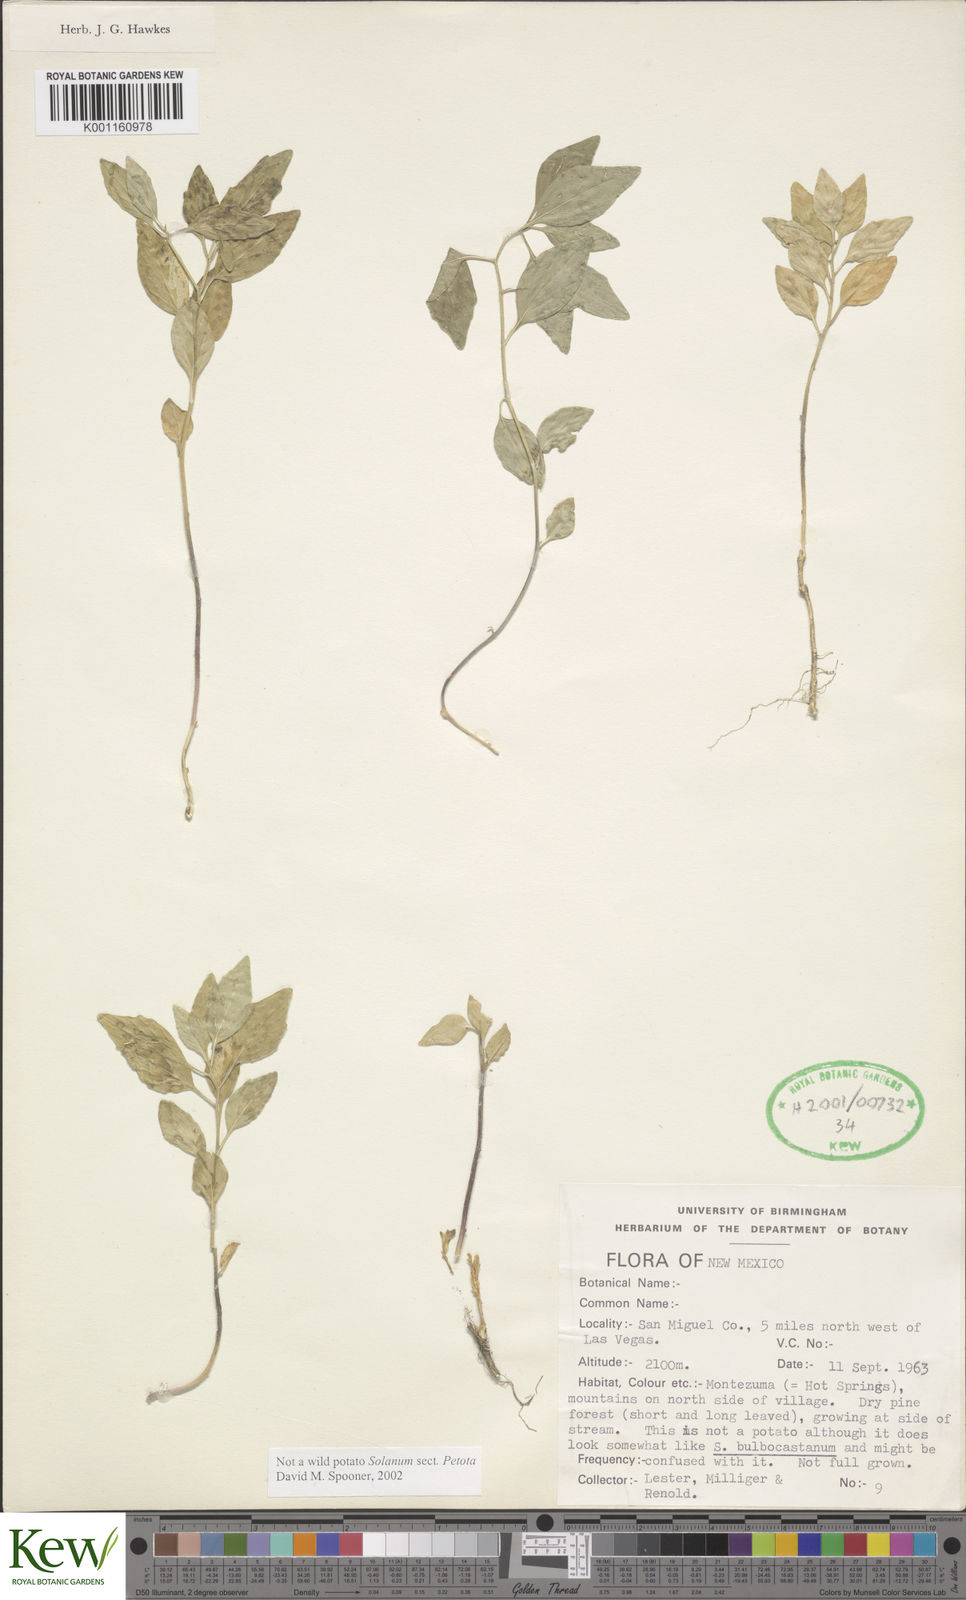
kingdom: Plantae
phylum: Tracheophyta
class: Magnoliopsida
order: Solanales
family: Solanaceae
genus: Solanum
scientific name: Solanum
